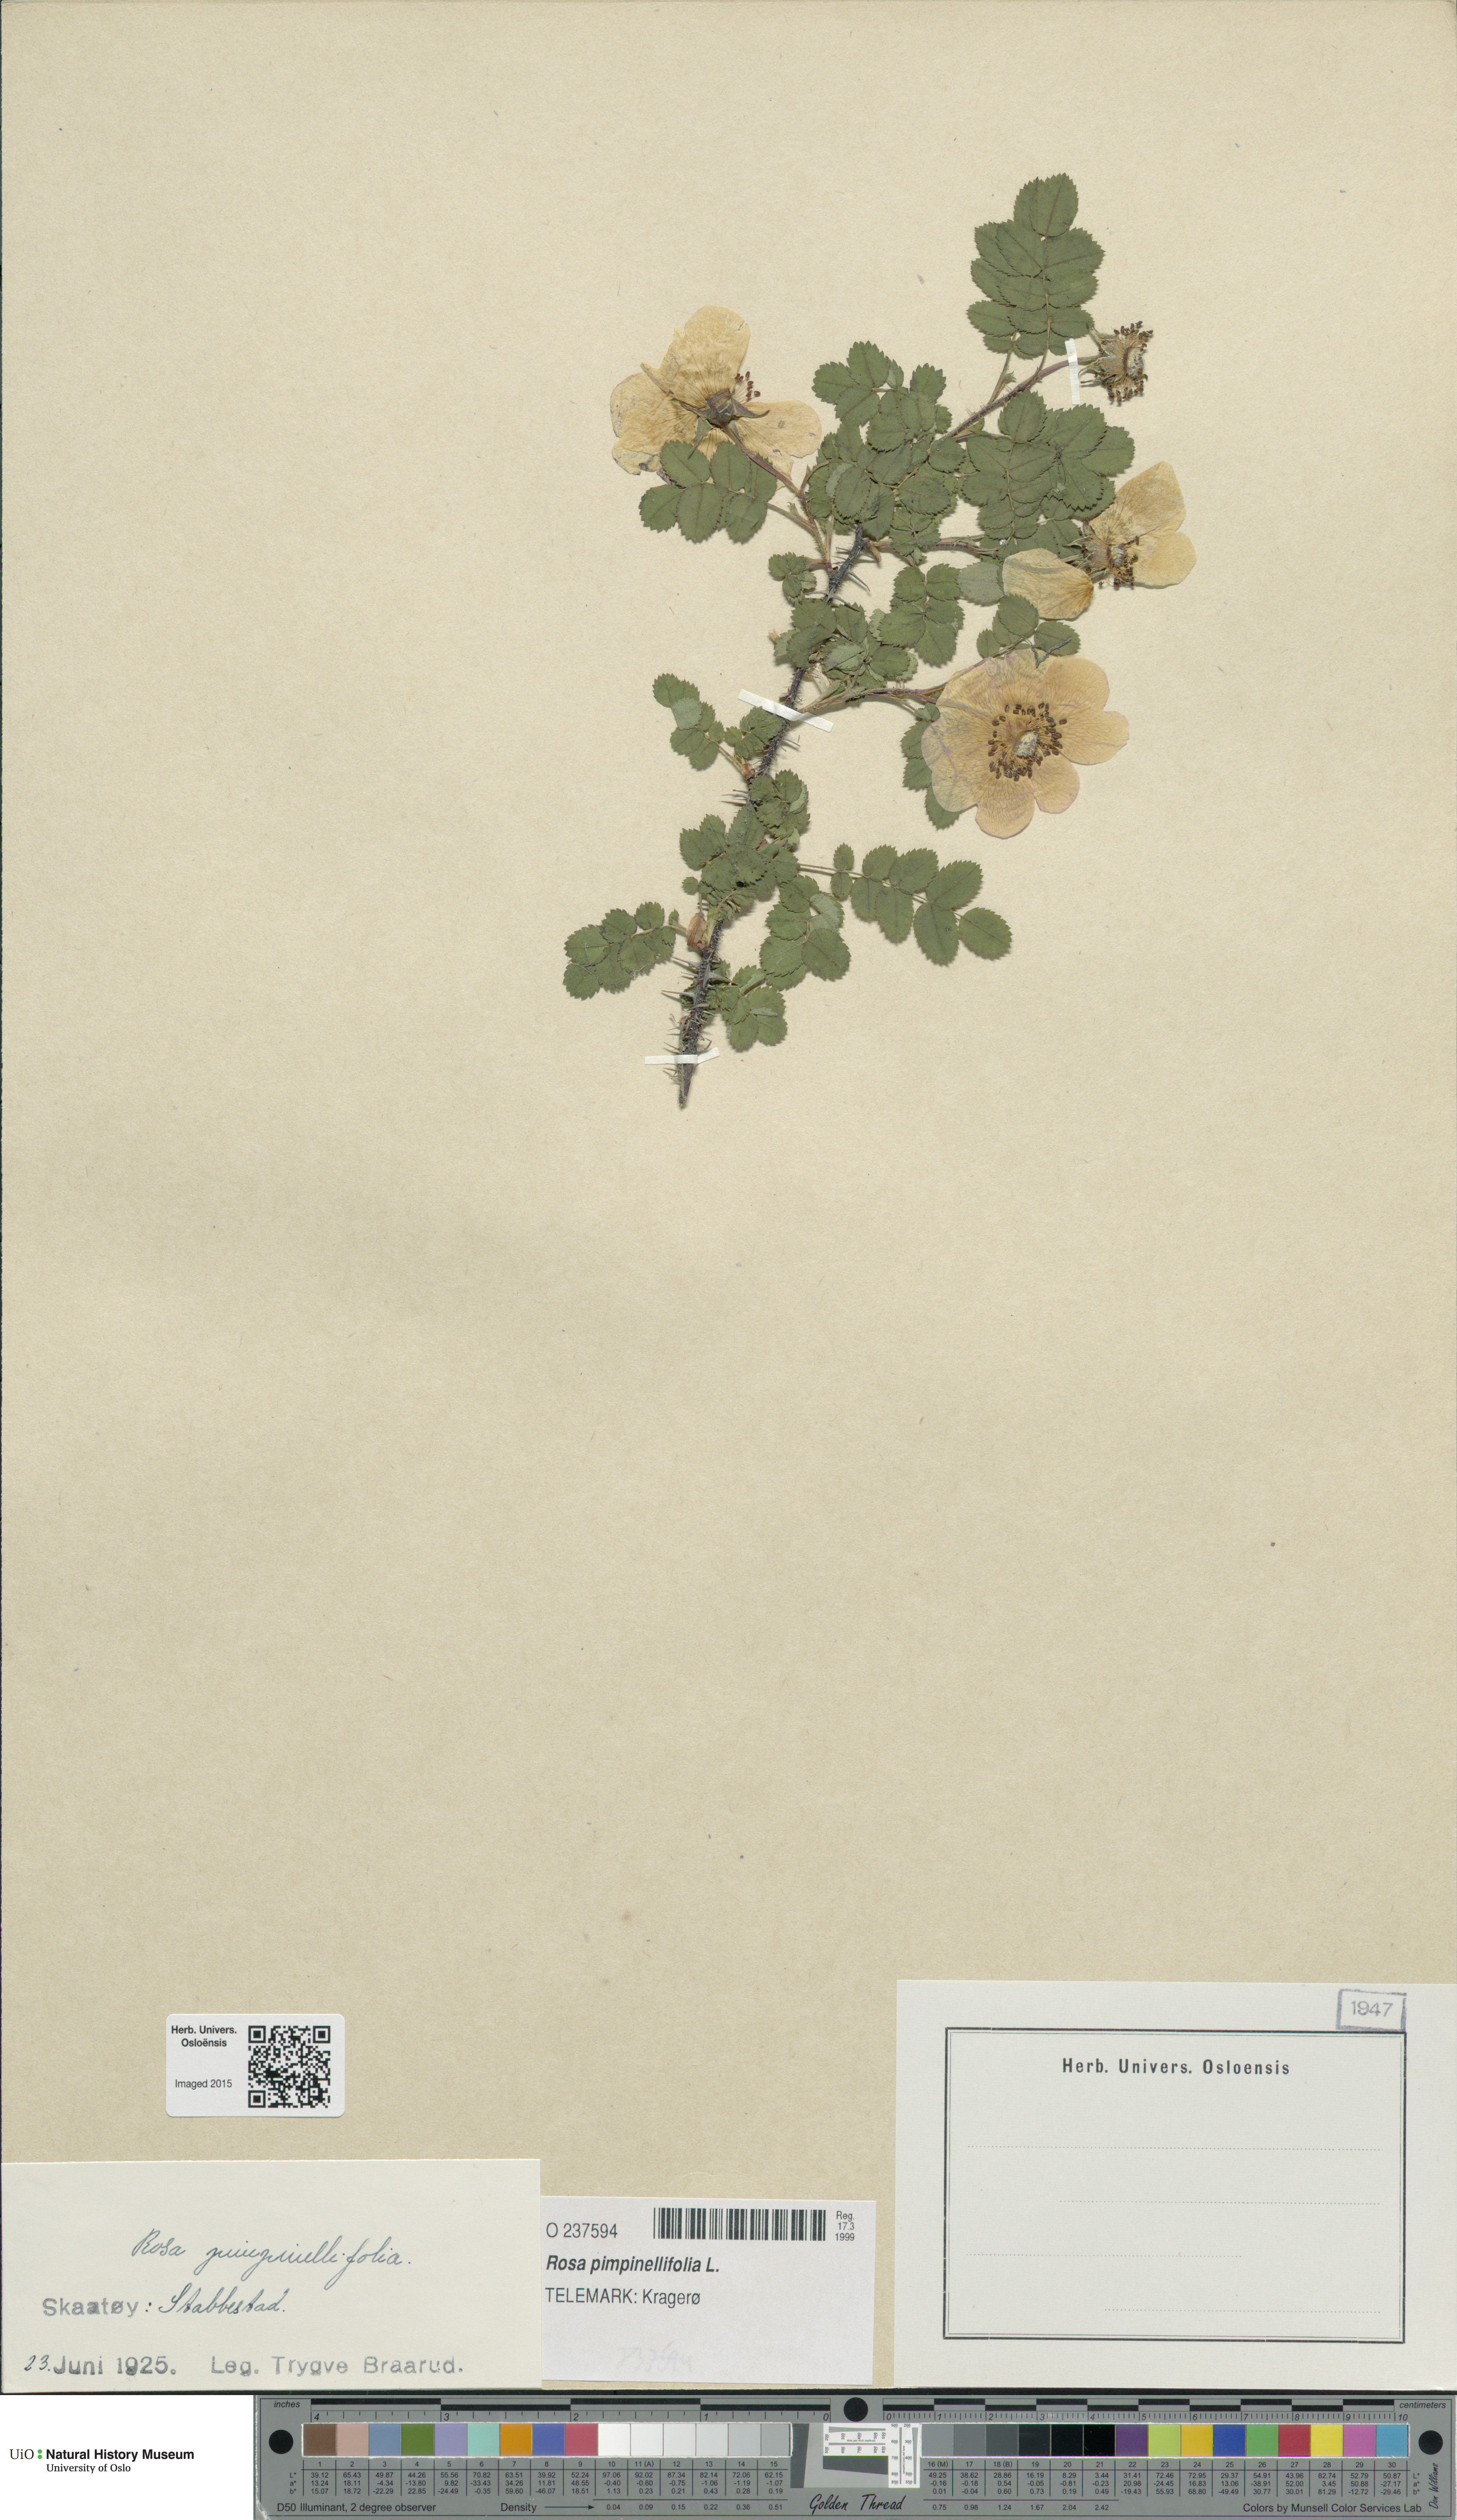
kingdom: Plantae
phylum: Tracheophyta
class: Magnoliopsida
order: Rosales
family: Rosaceae
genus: Rosa
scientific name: Rosa spinosissima
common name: Burnet rose
